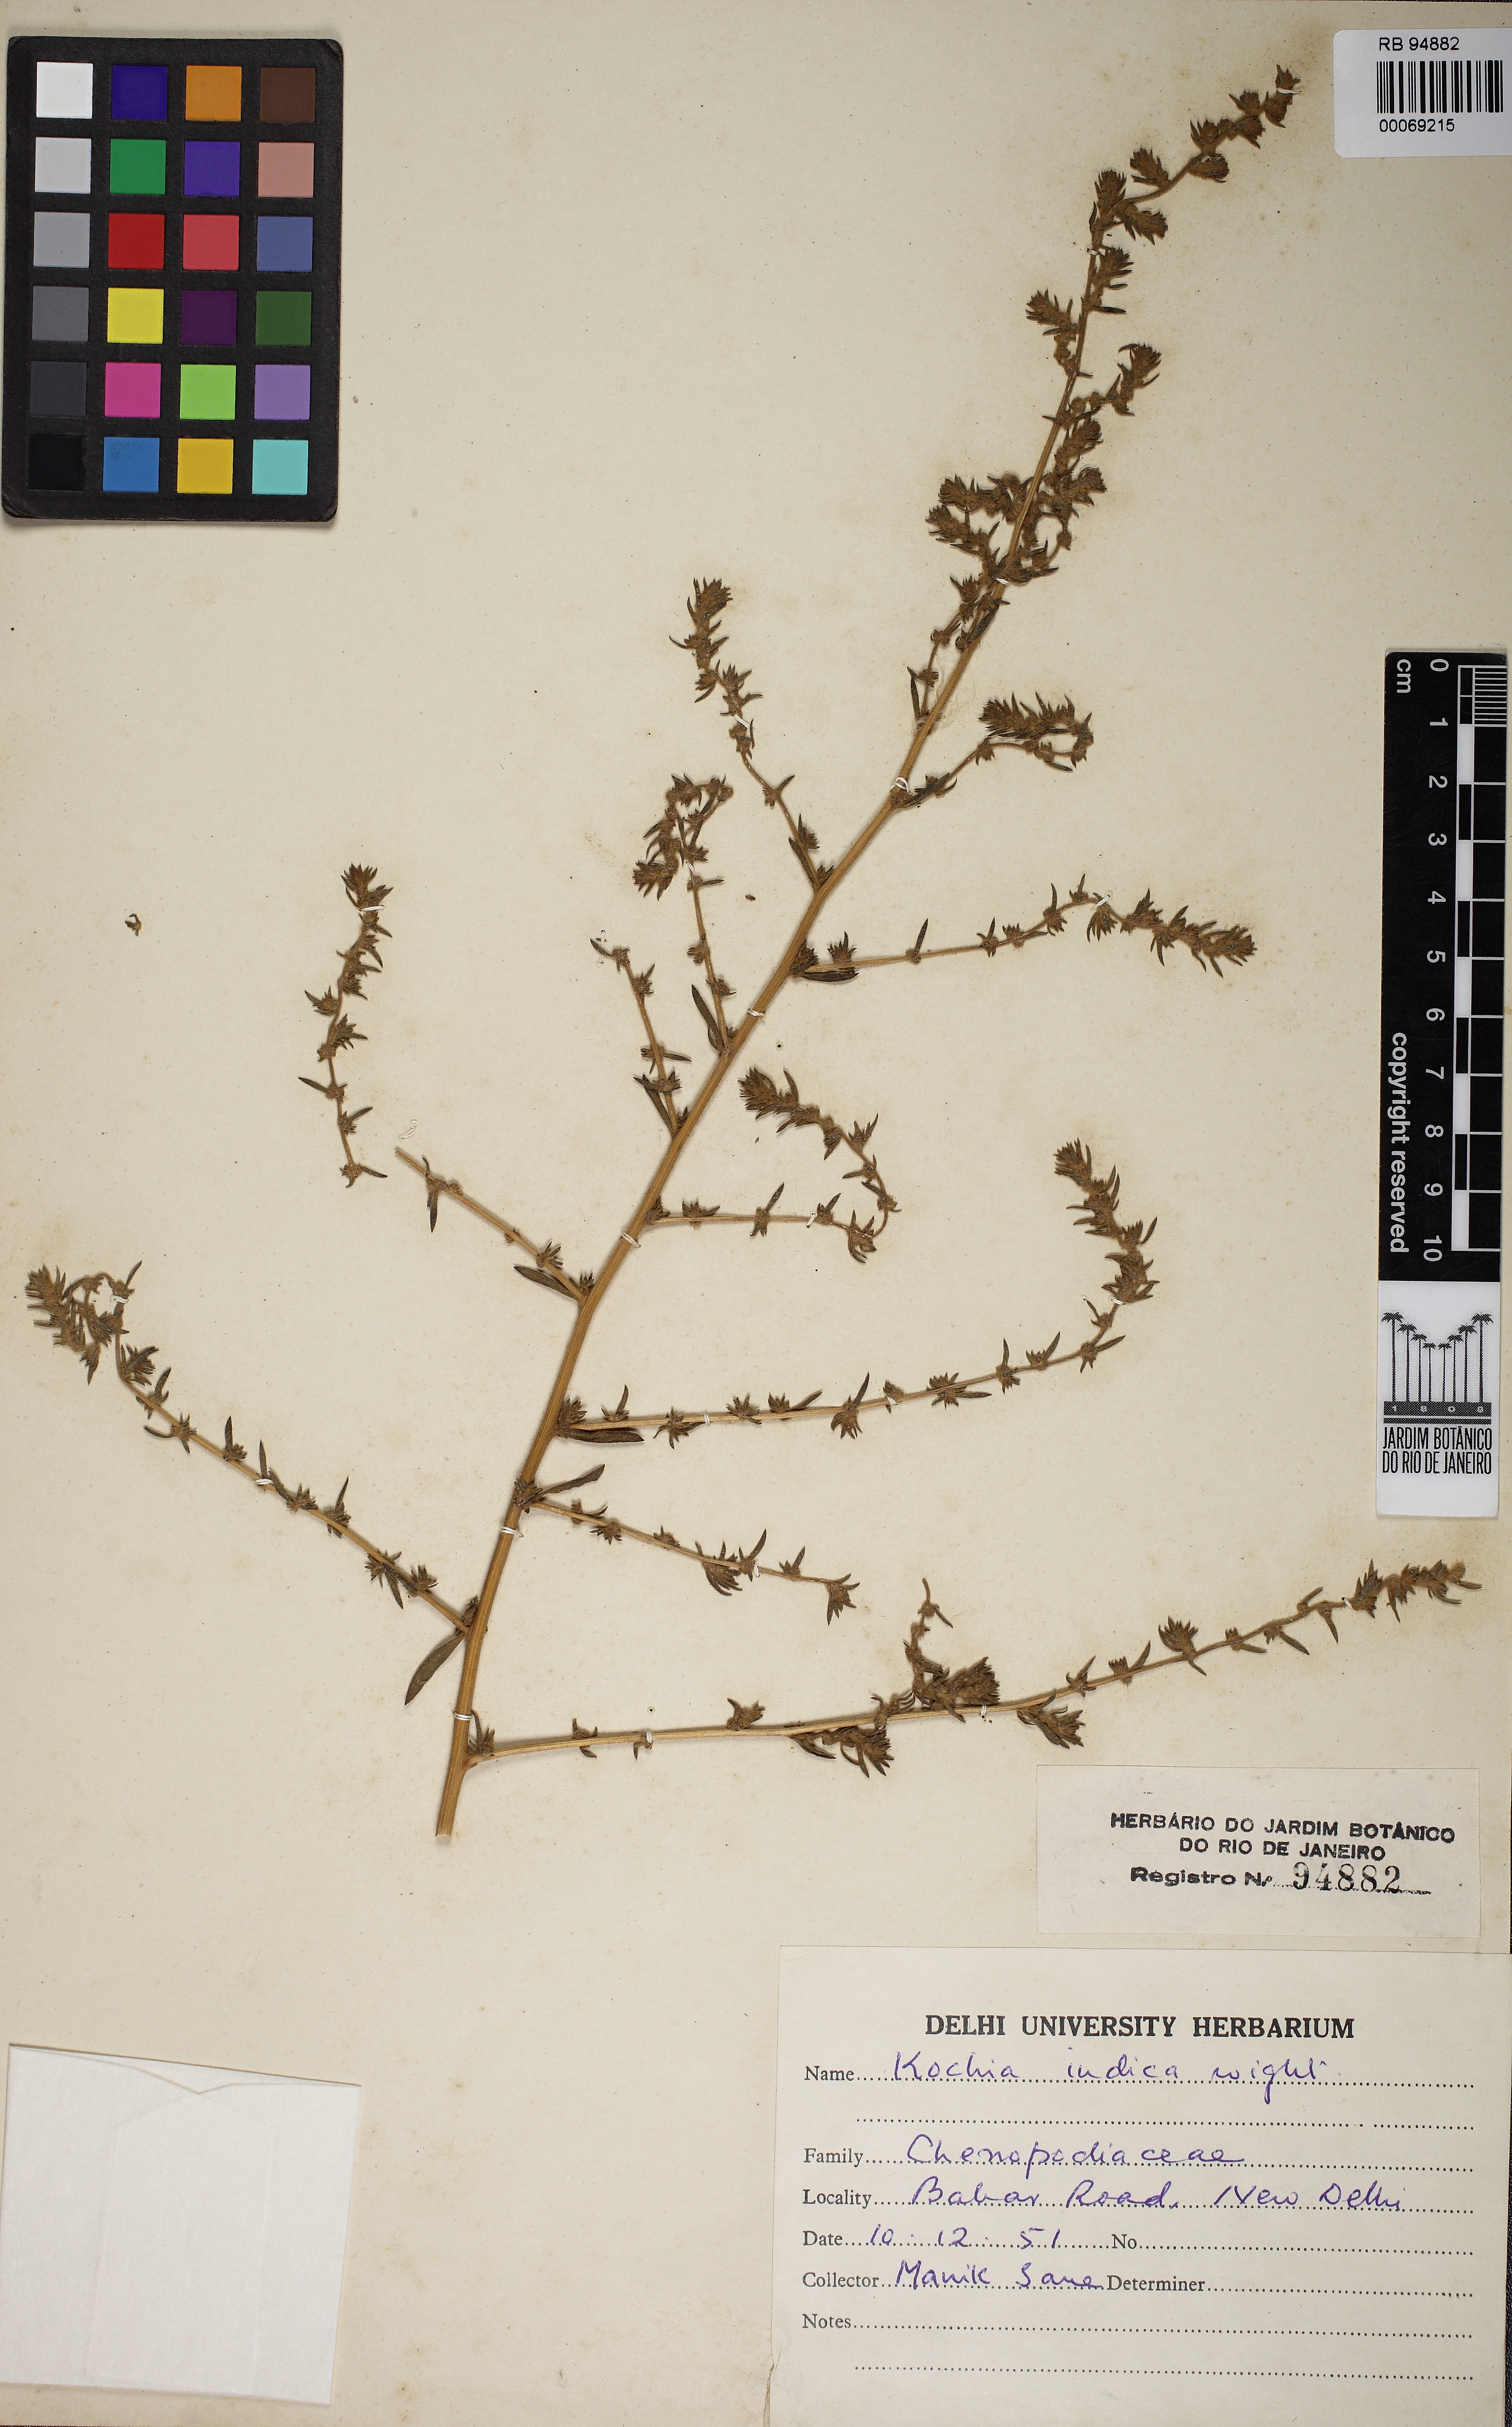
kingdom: Plantae
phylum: Tracheophyta
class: Magnoliopsida
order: Caryophyllales
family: Amaranthaceae
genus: Bassia
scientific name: Bassia indica
